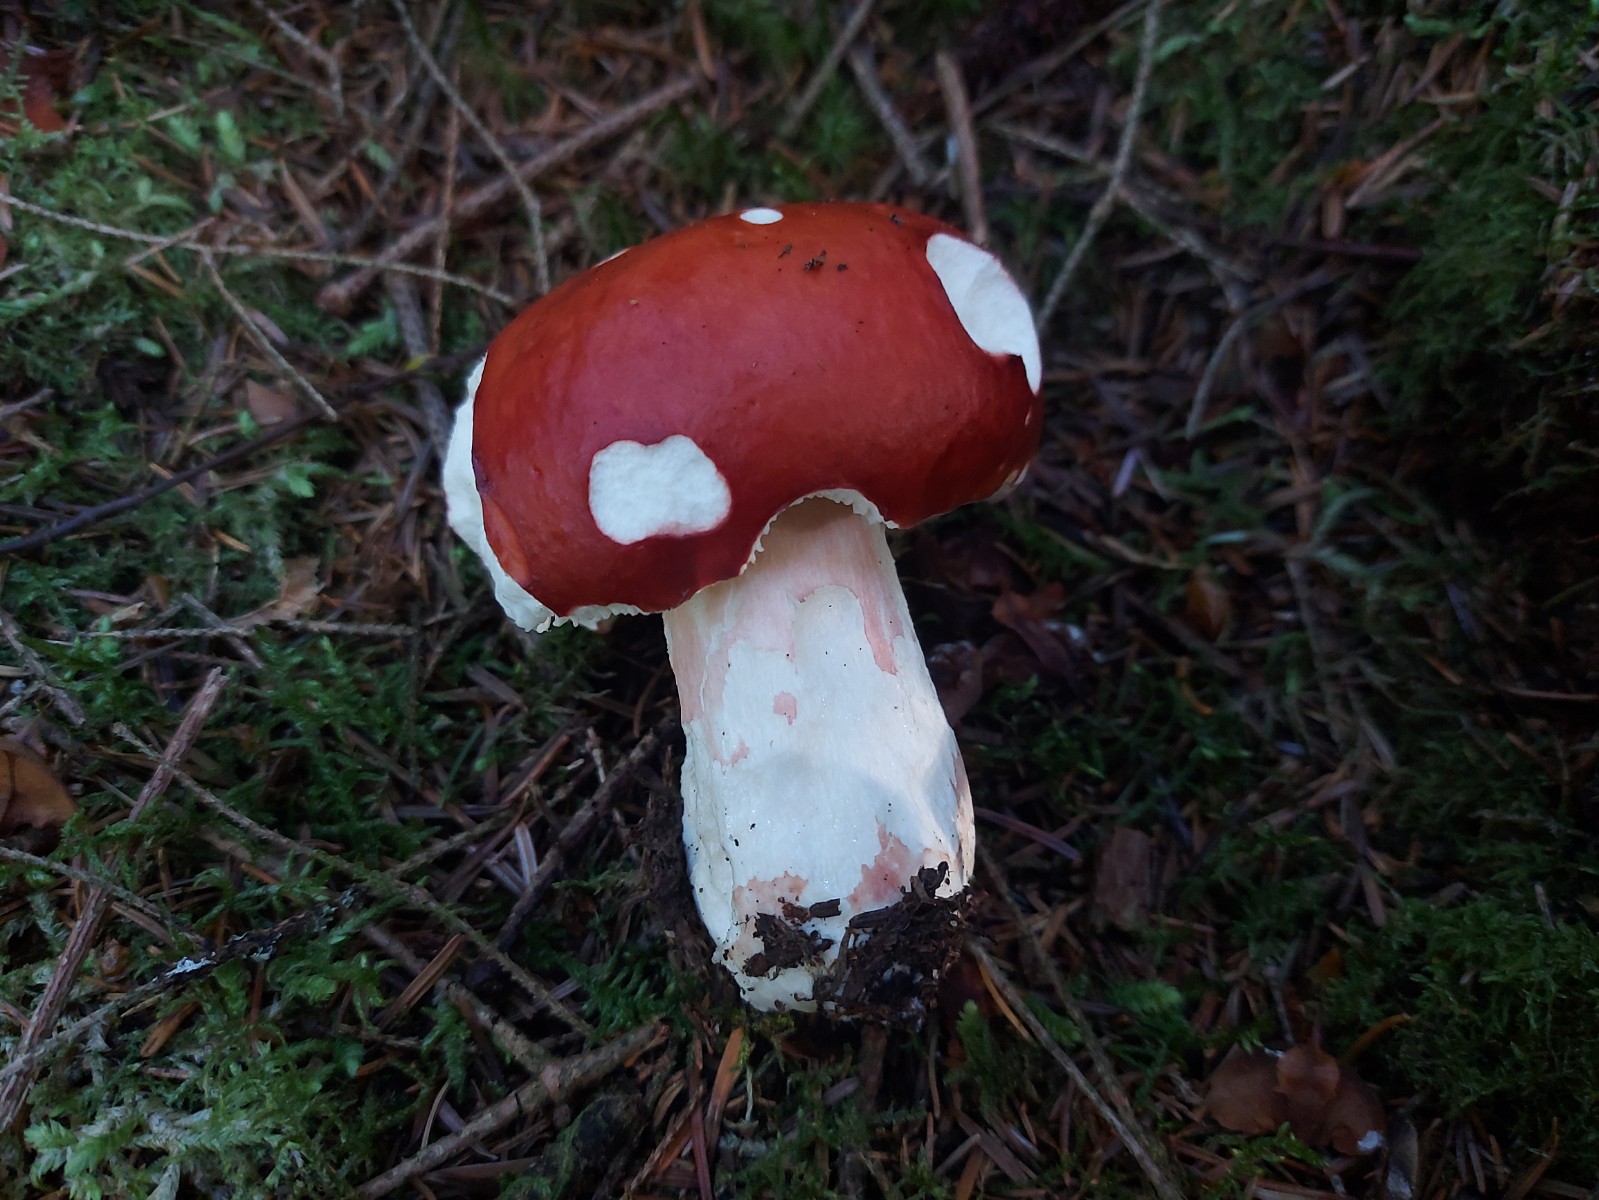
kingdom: Fungi
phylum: Basidiomycota
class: Agaricomycetes
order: Russulales
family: Russulaceae
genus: Russula
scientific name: Russula paludosa
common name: prægtig skørhat
